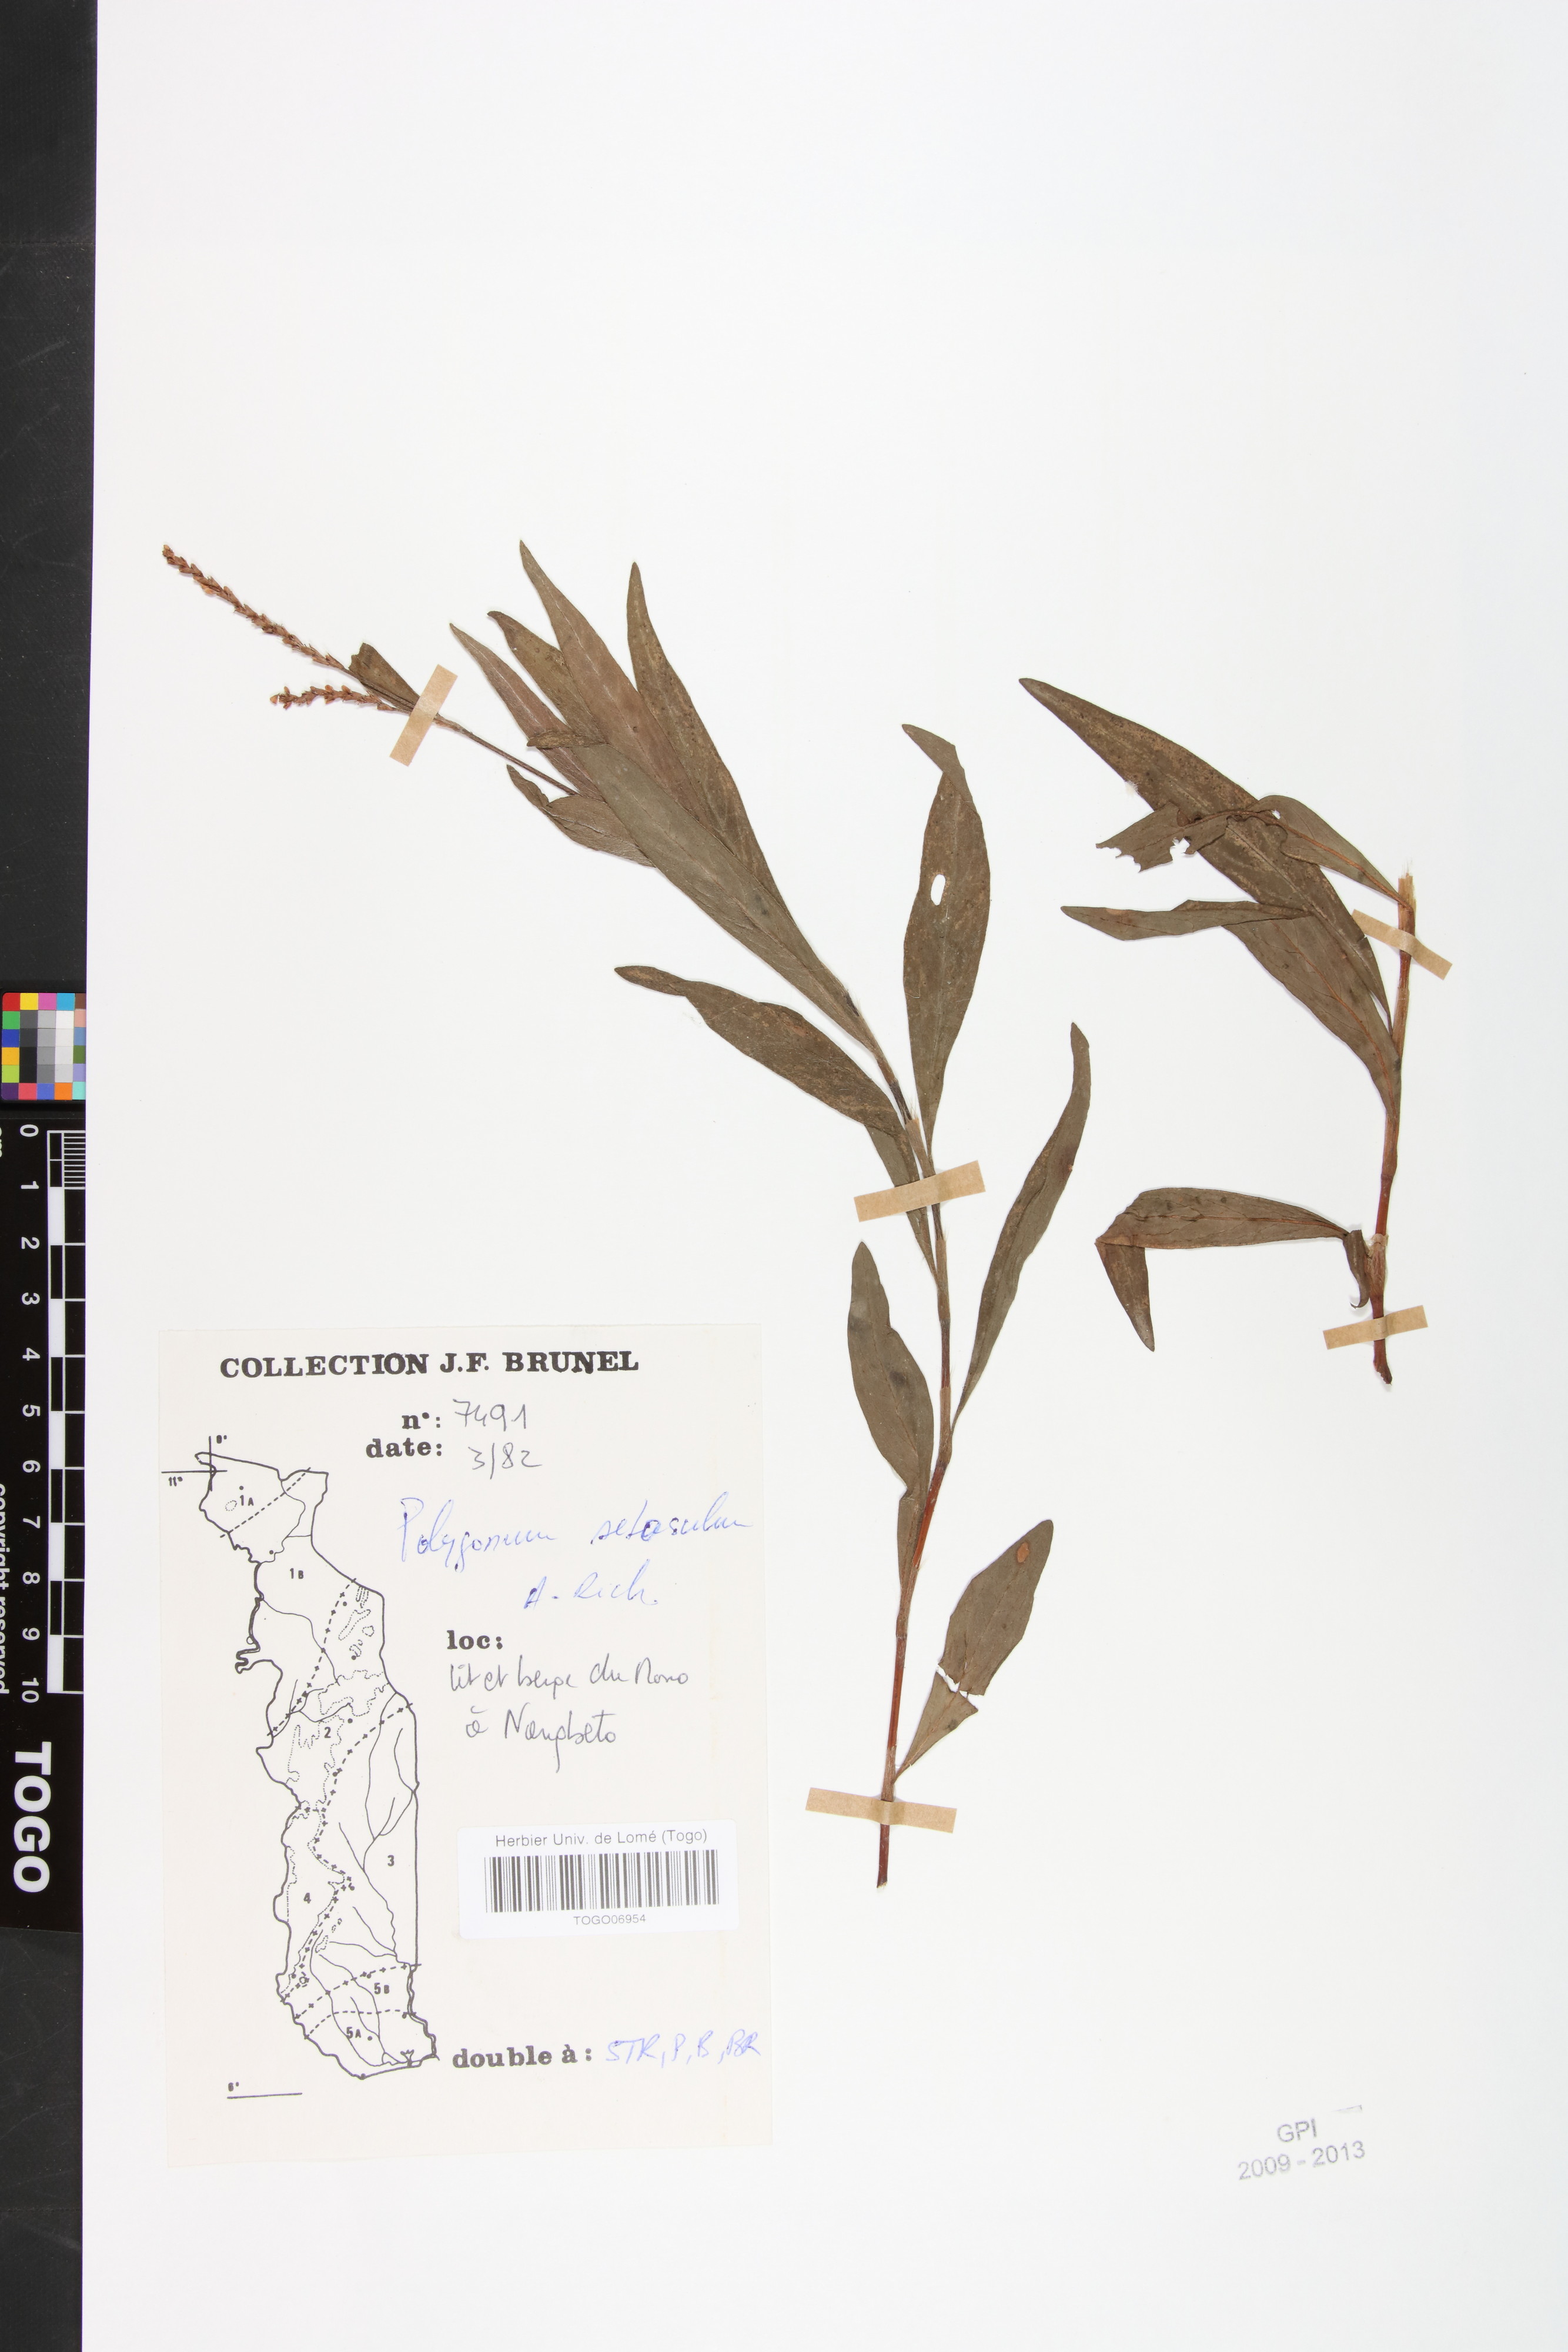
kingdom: Plantae
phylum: Tracheophyta
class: Magnoliopsida
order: Caryophyllales
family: Polygonaceae
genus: Persicaria
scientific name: Persicaria setosula
